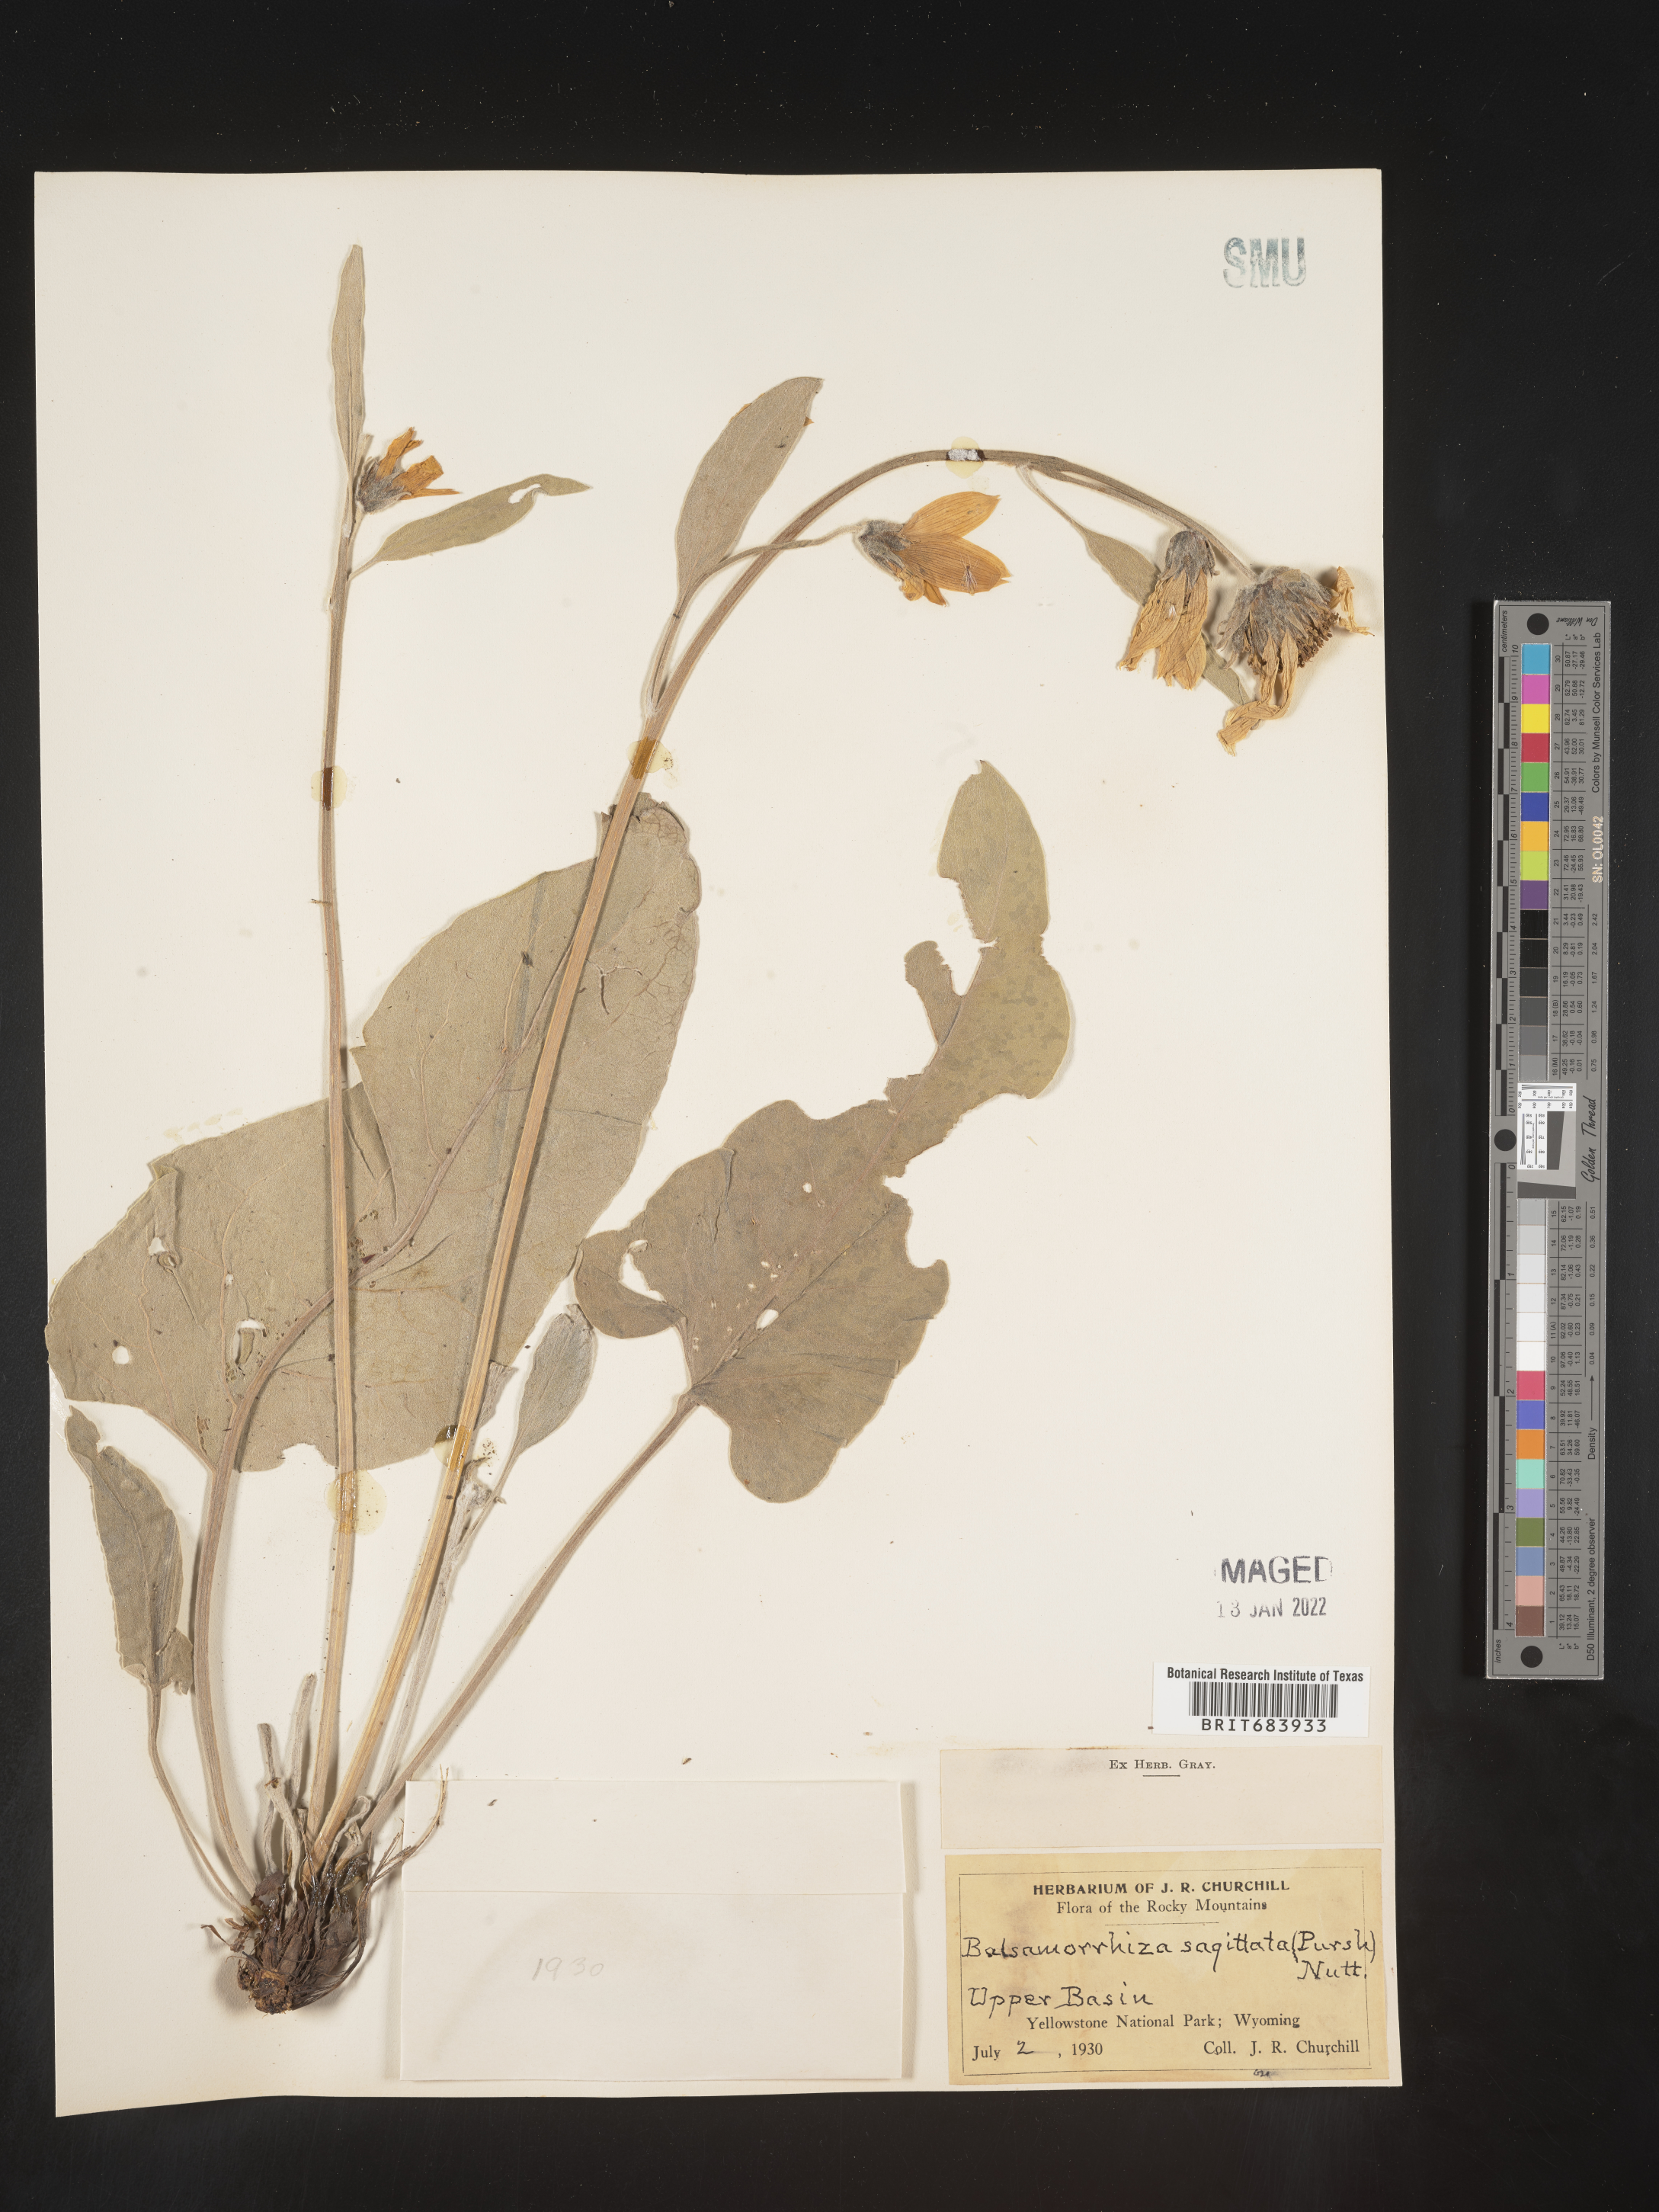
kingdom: Plantae
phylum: Tracheophyta
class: Magnoliopsida
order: Asterales
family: Asteraceae
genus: Wyethia
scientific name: Wyethia sagittata
